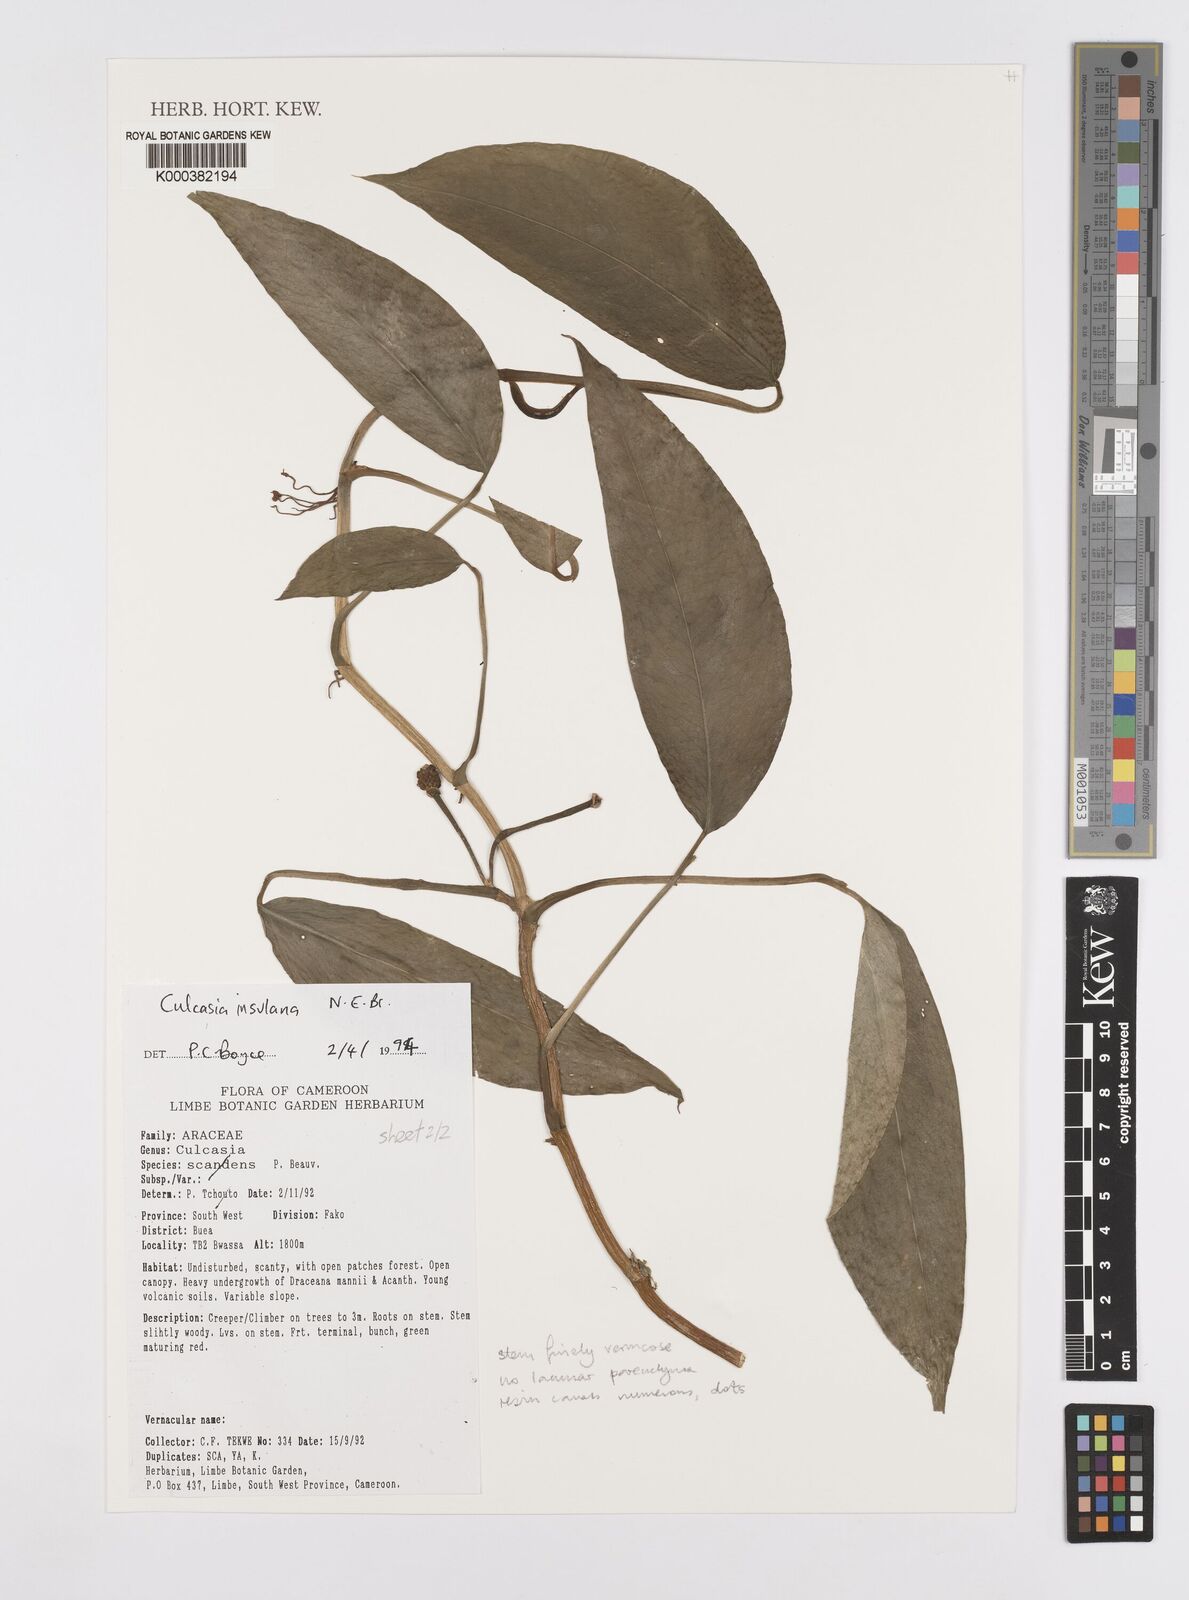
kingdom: Plantae
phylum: Tracheophyta
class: Liliopsida
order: Alismatales
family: Araceae
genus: Culcasia
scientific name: Culcasia insulana
